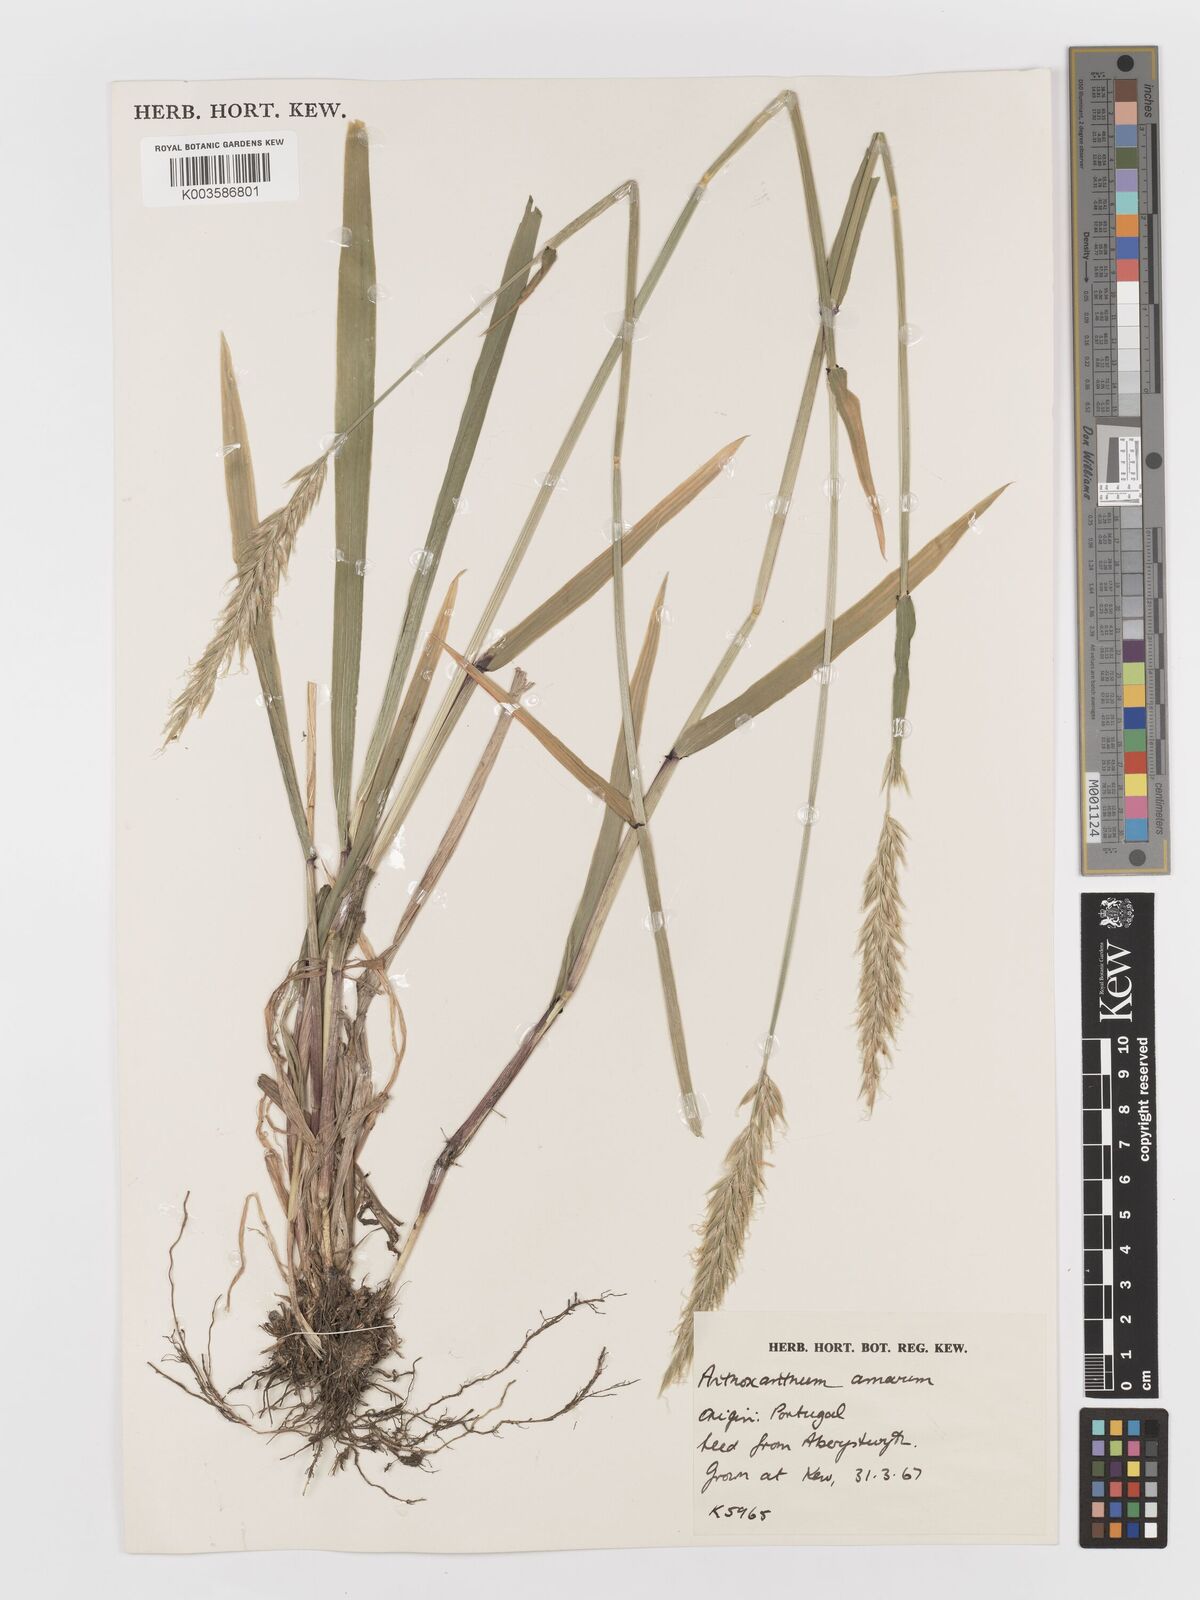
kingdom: Plantae
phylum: Tracheophyta
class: Liliopsida
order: Poales
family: Poaceae
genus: Anthoxanthum
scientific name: Anthoxanthum amarum
